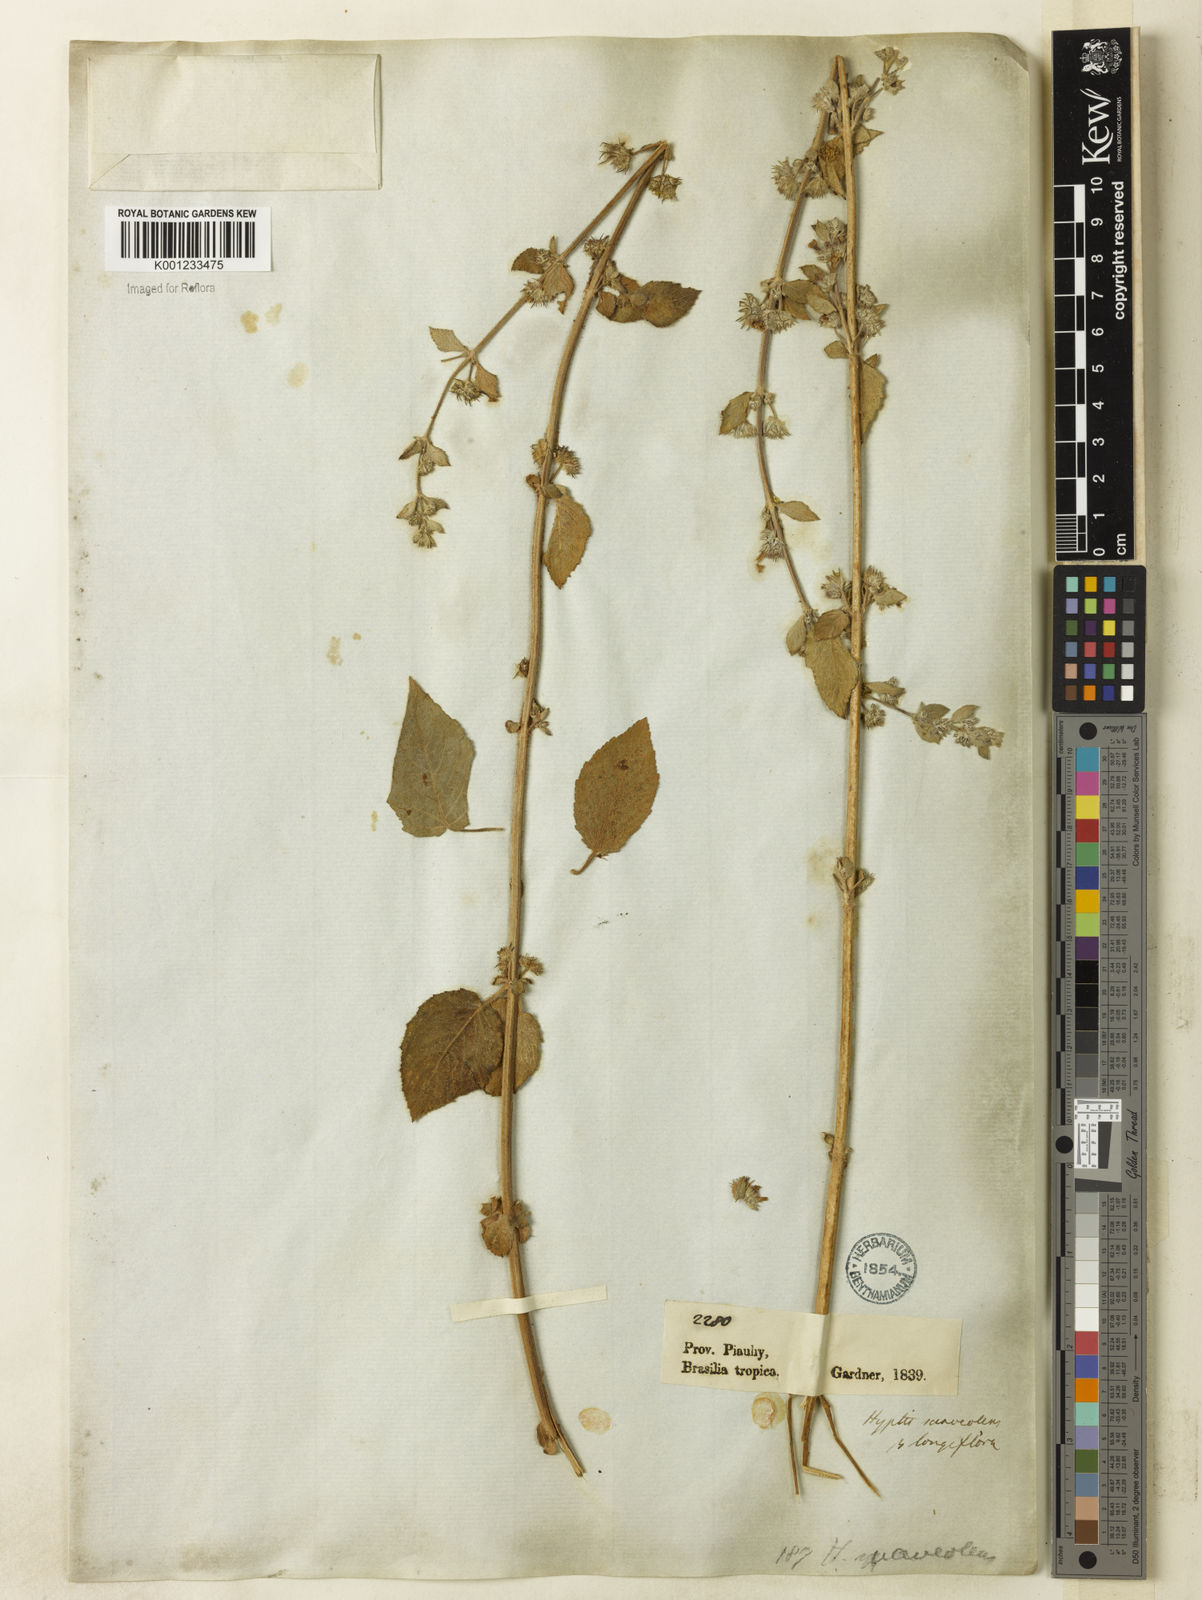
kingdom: Plantae
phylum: Tracheophyta
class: Magnoliopsida
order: Lamiales
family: Lamiaceae
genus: Mesosphaerum
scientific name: Mesosphaerum suaveolens
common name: Pignut
